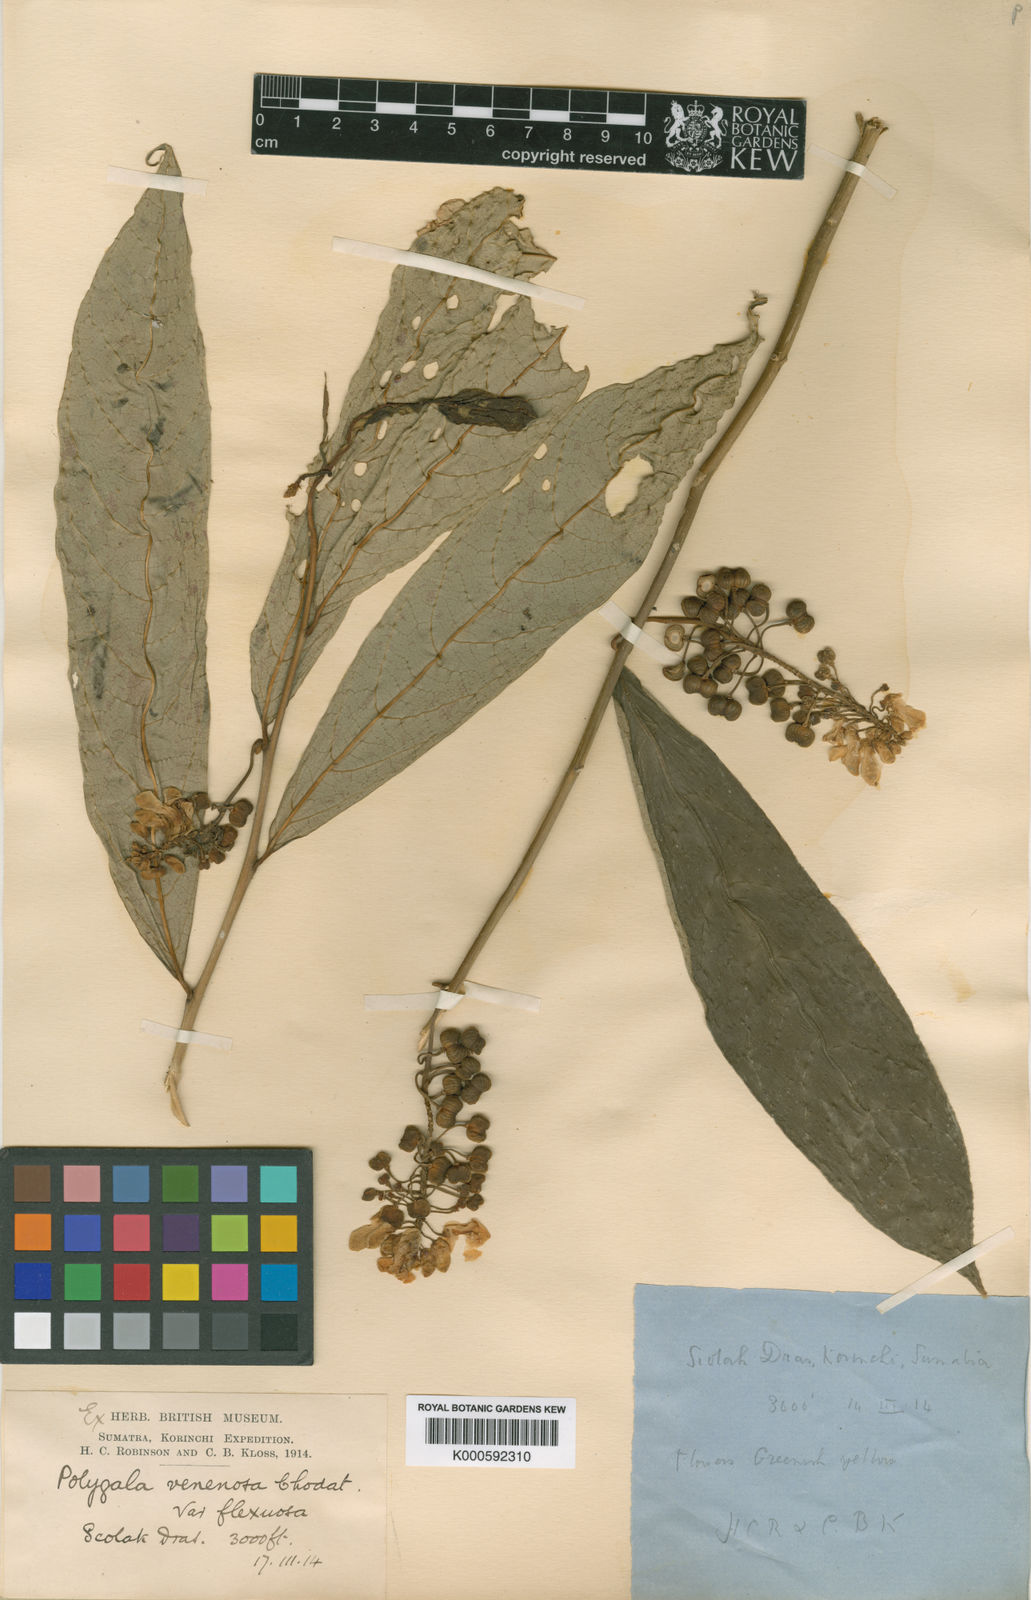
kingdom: Plantae
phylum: Tracheophyta
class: Magnoliopsida
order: Fabales
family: Polygalaceae
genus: Polygala
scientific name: Polygala venenosa
